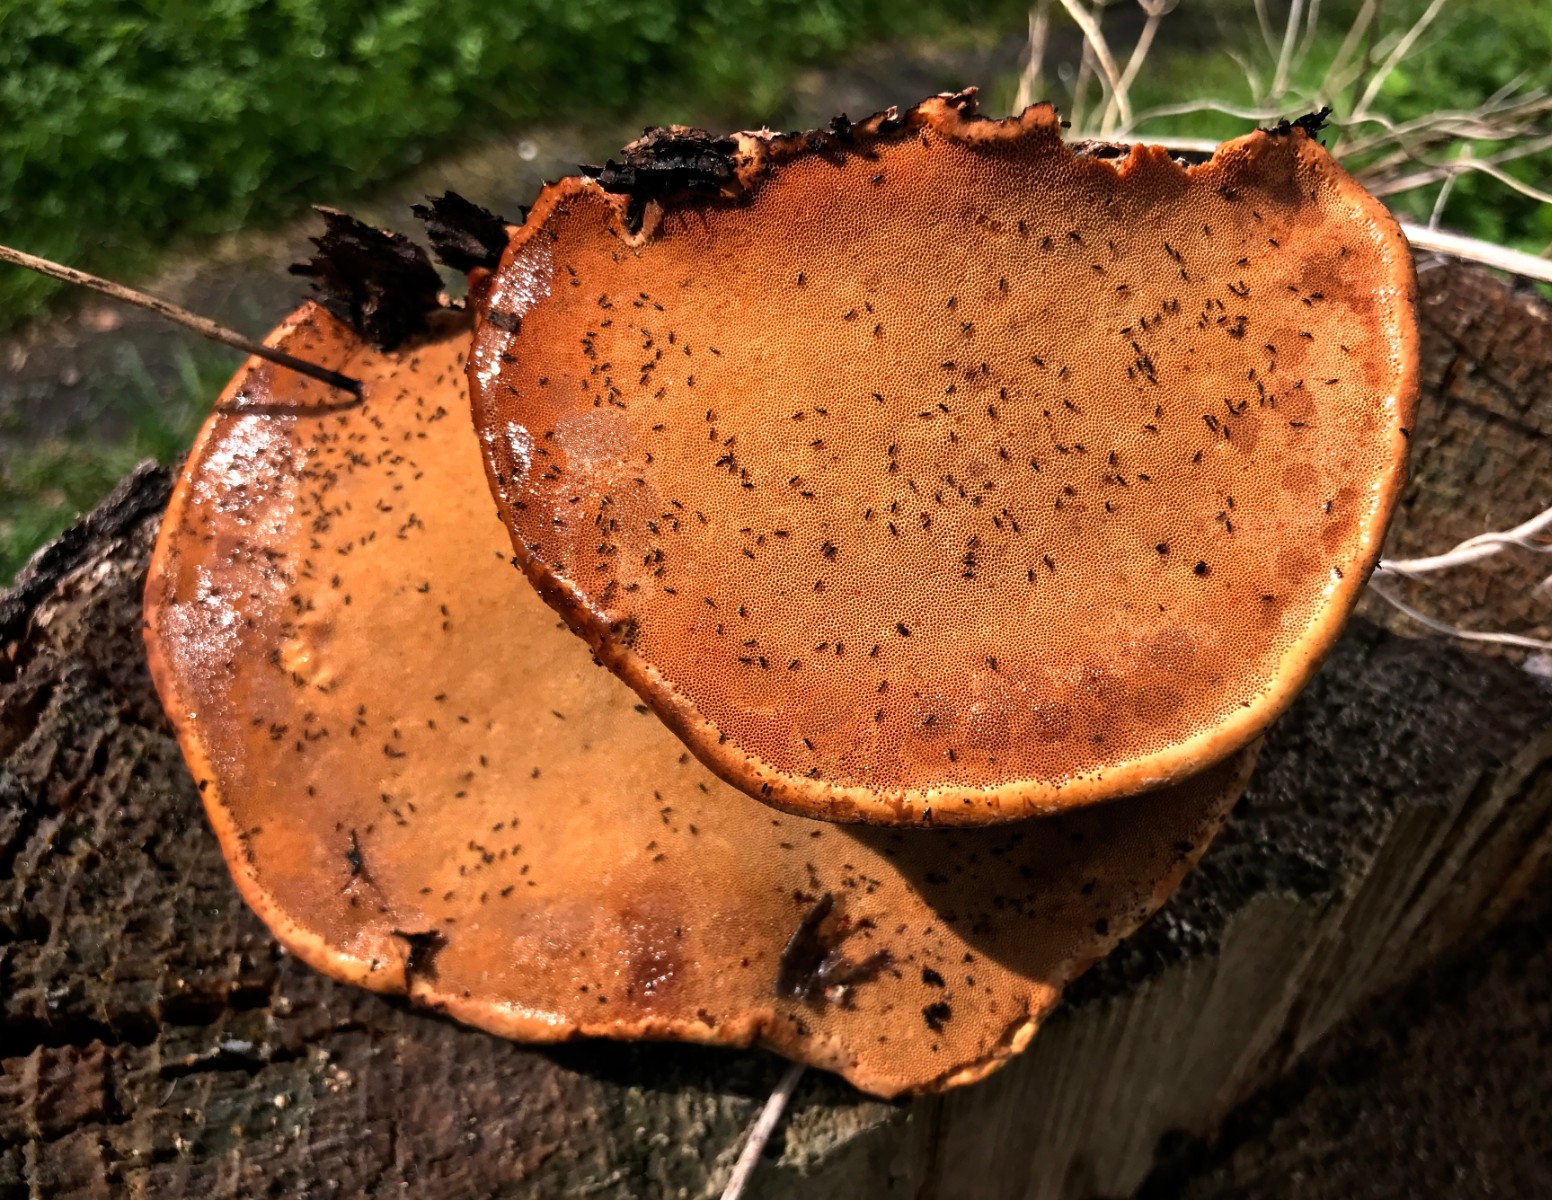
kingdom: Fungi
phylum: Basidiomycota
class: Agaricomycetes
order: Polyporales
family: Fomitopsidaceae
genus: Fomitopsis
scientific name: Fomitopsis pinicola
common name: randbæltet hovporesvamp
